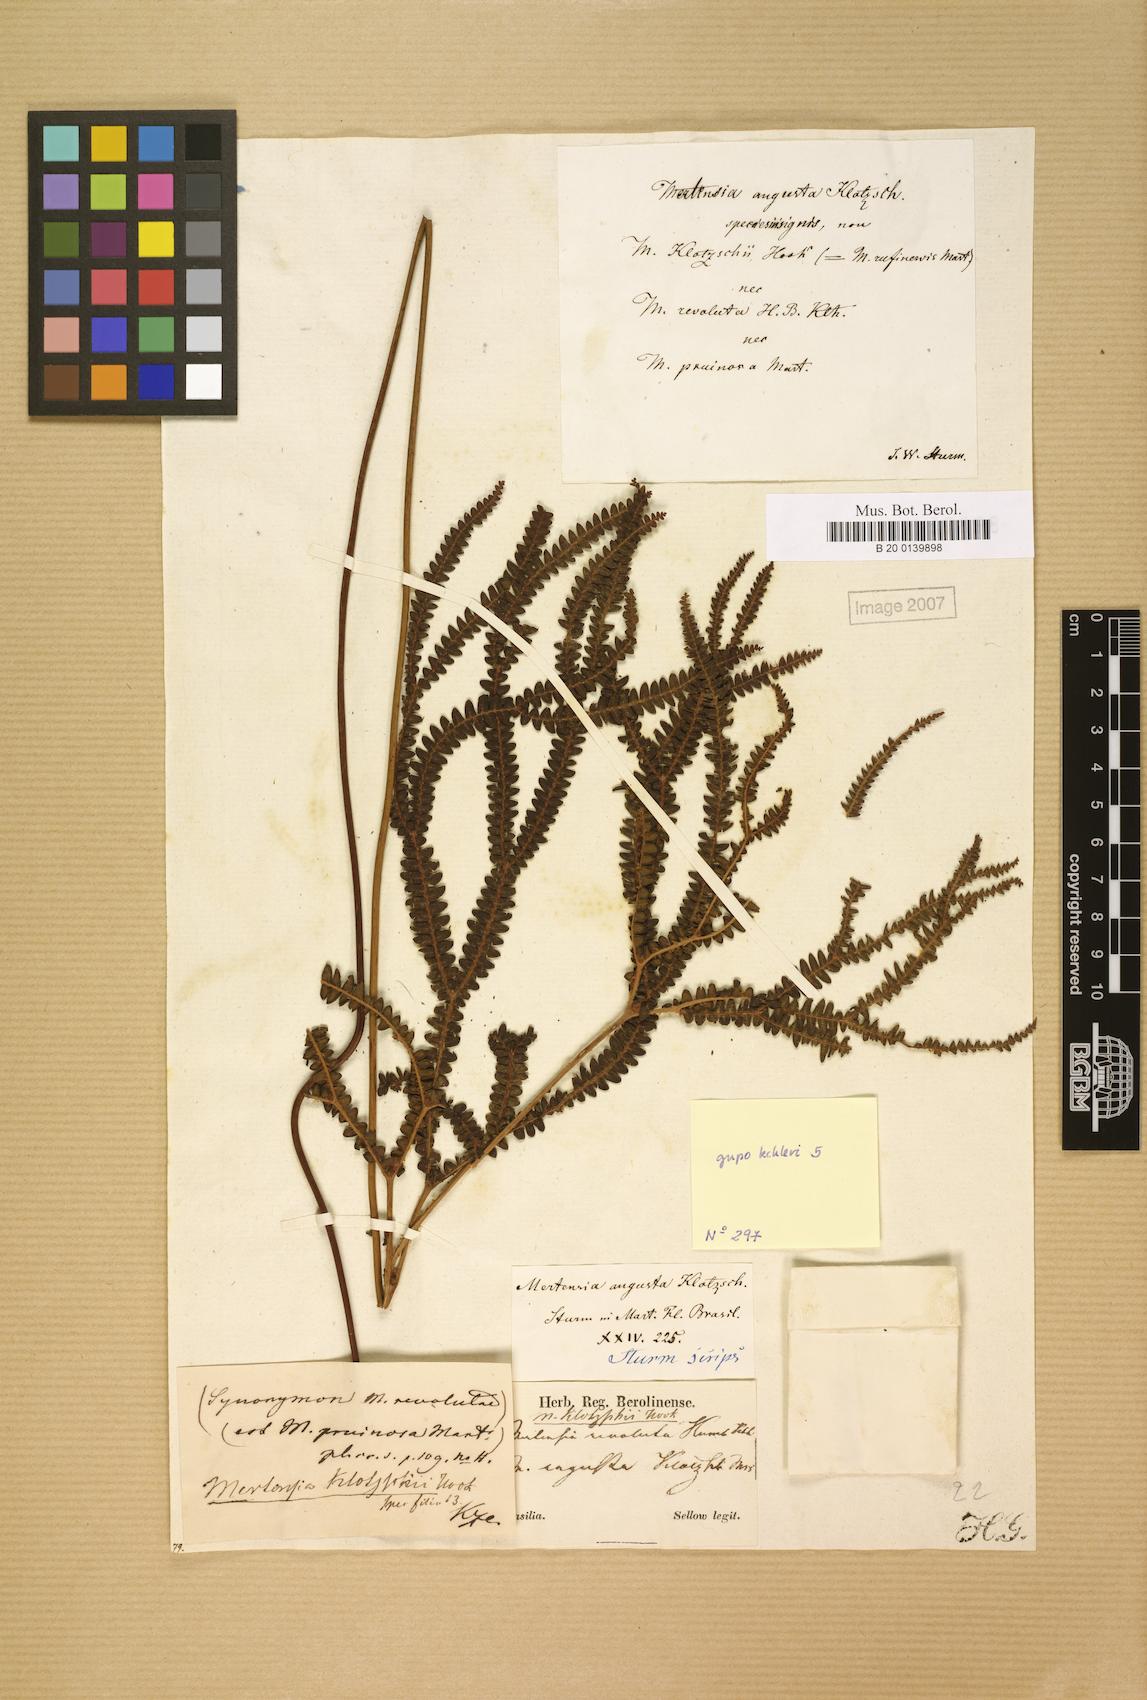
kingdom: Plantae
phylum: Tracheophyta
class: Polypodiopsida
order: Gleicheniales
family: Gleicheniaceae
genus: Sticherus
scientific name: Sticherus pruinosus
